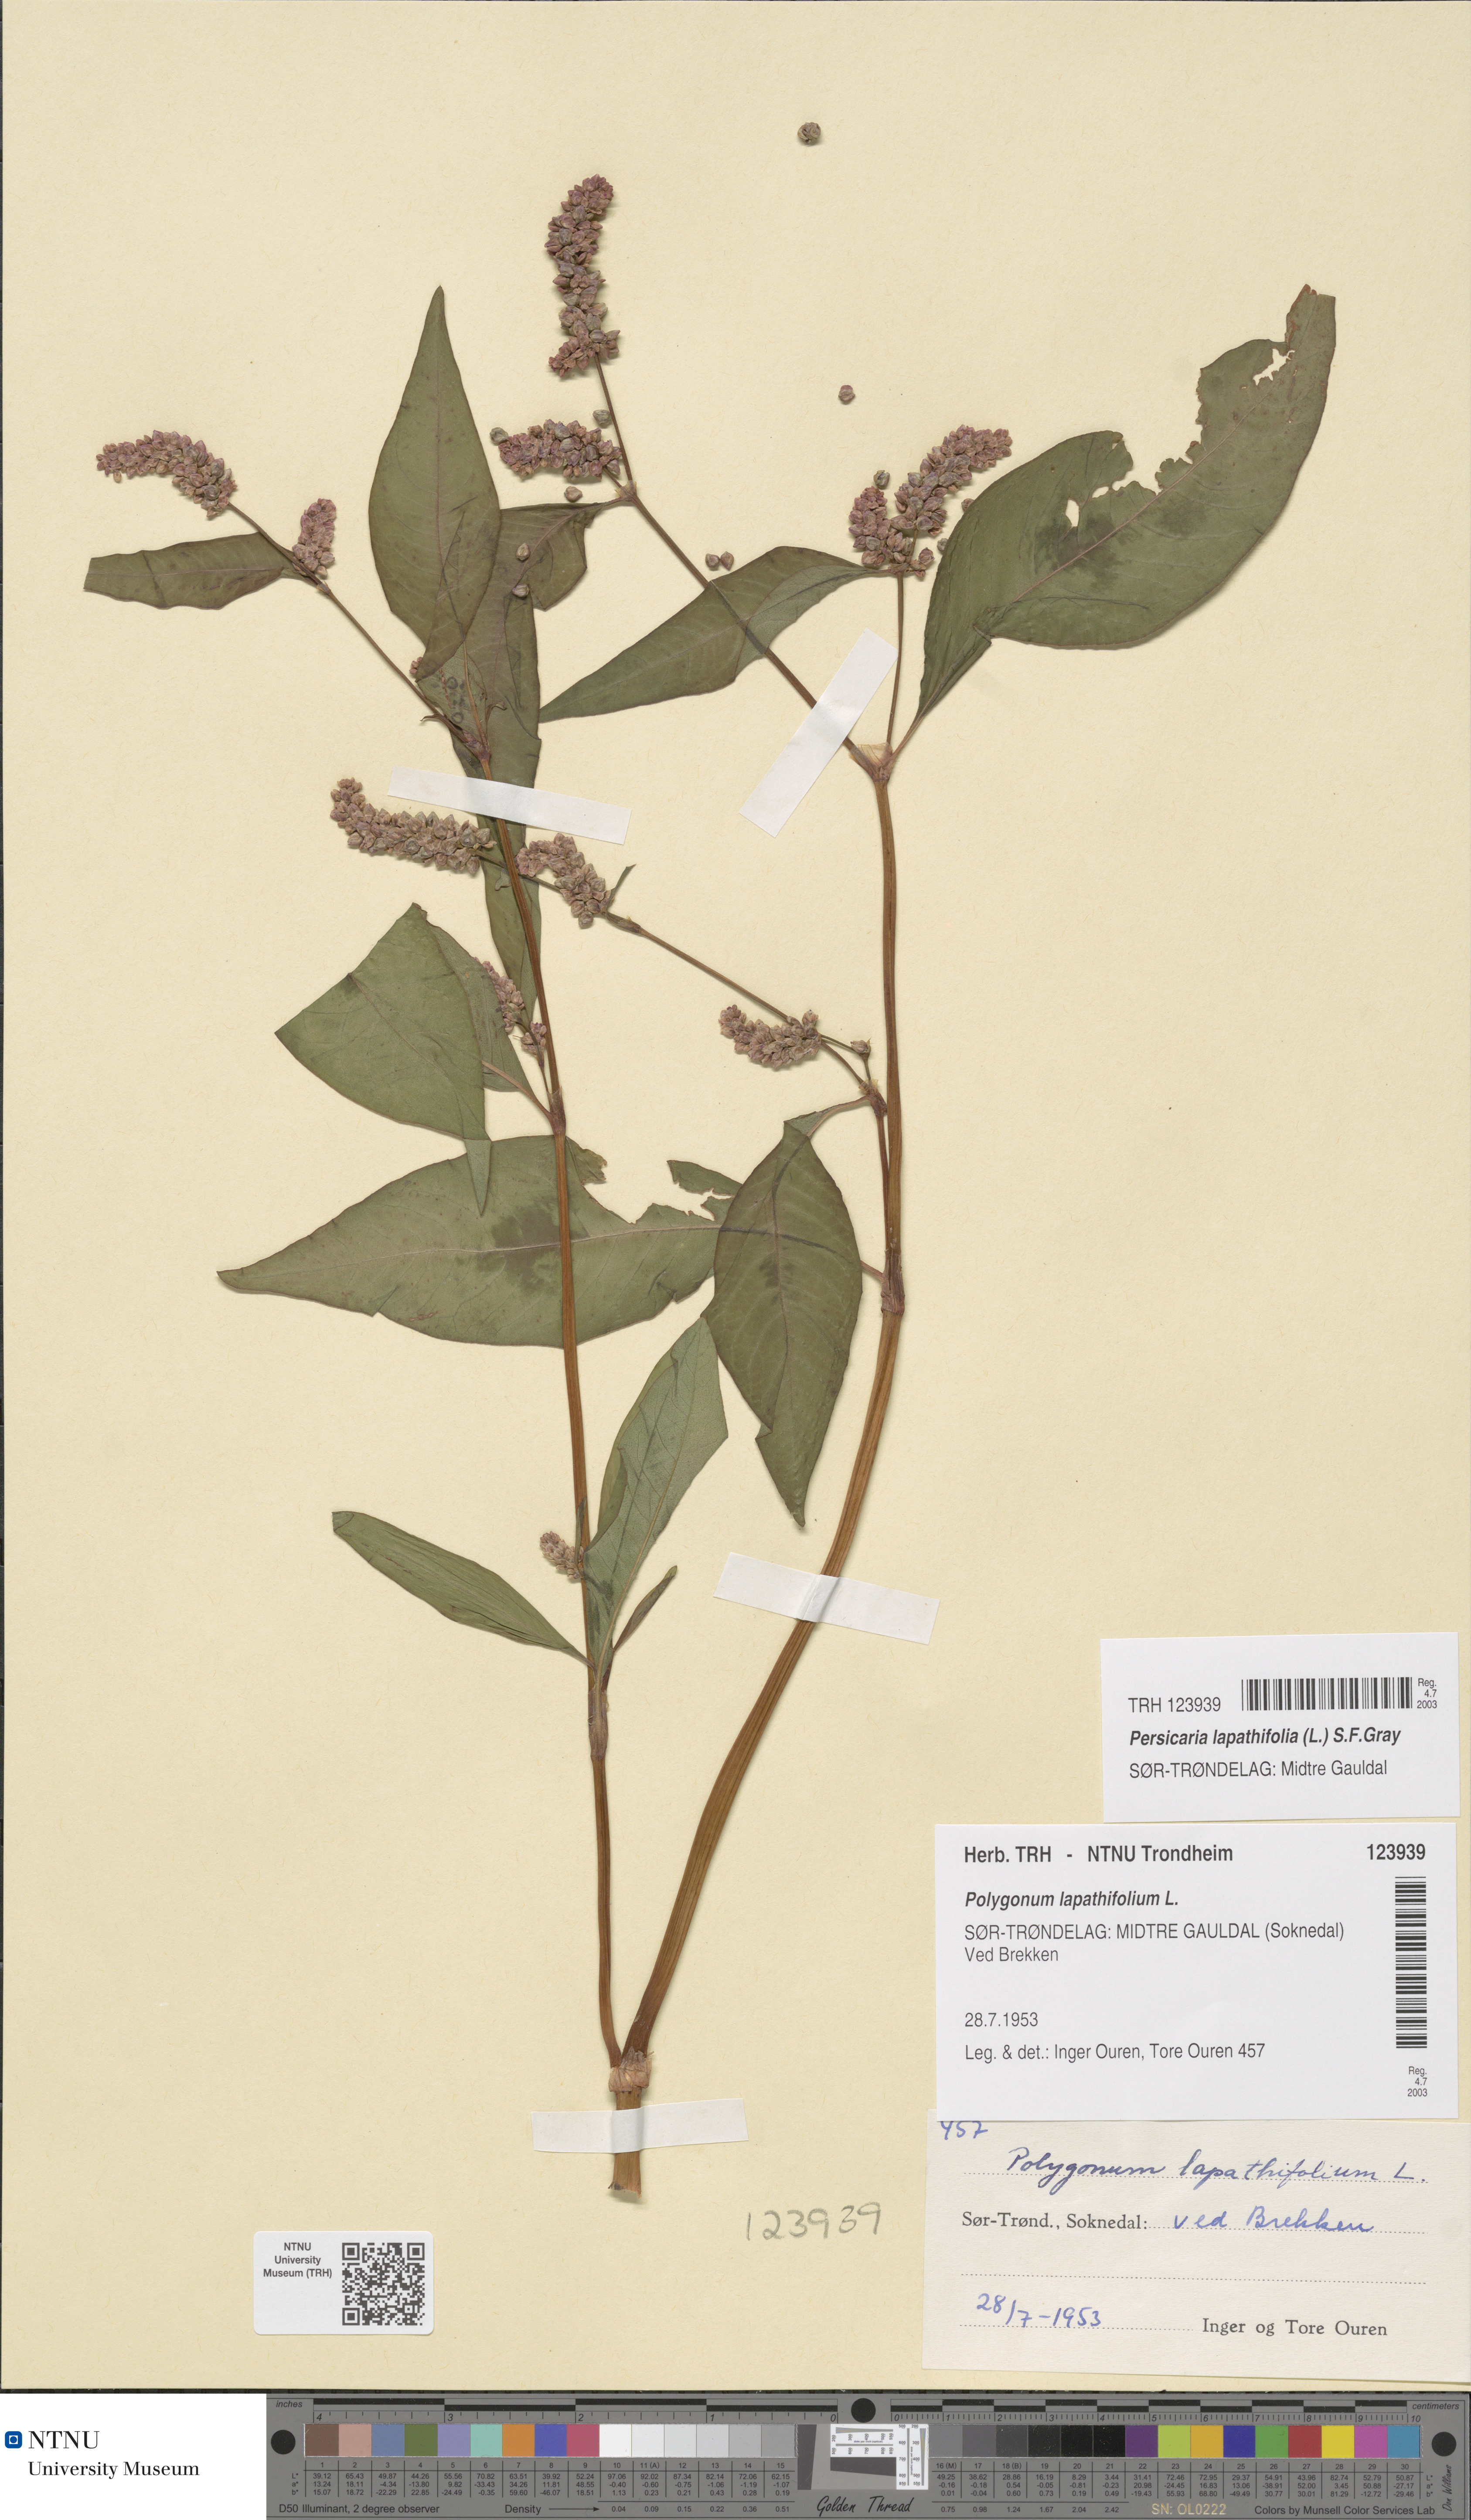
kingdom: Plantae
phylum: Tracheophyta
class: Magnoliopsida
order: Caryophyllales
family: Polygonaceae
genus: Persicaria
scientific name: Persicaria lapathifolia
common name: Curlytop knotweed
